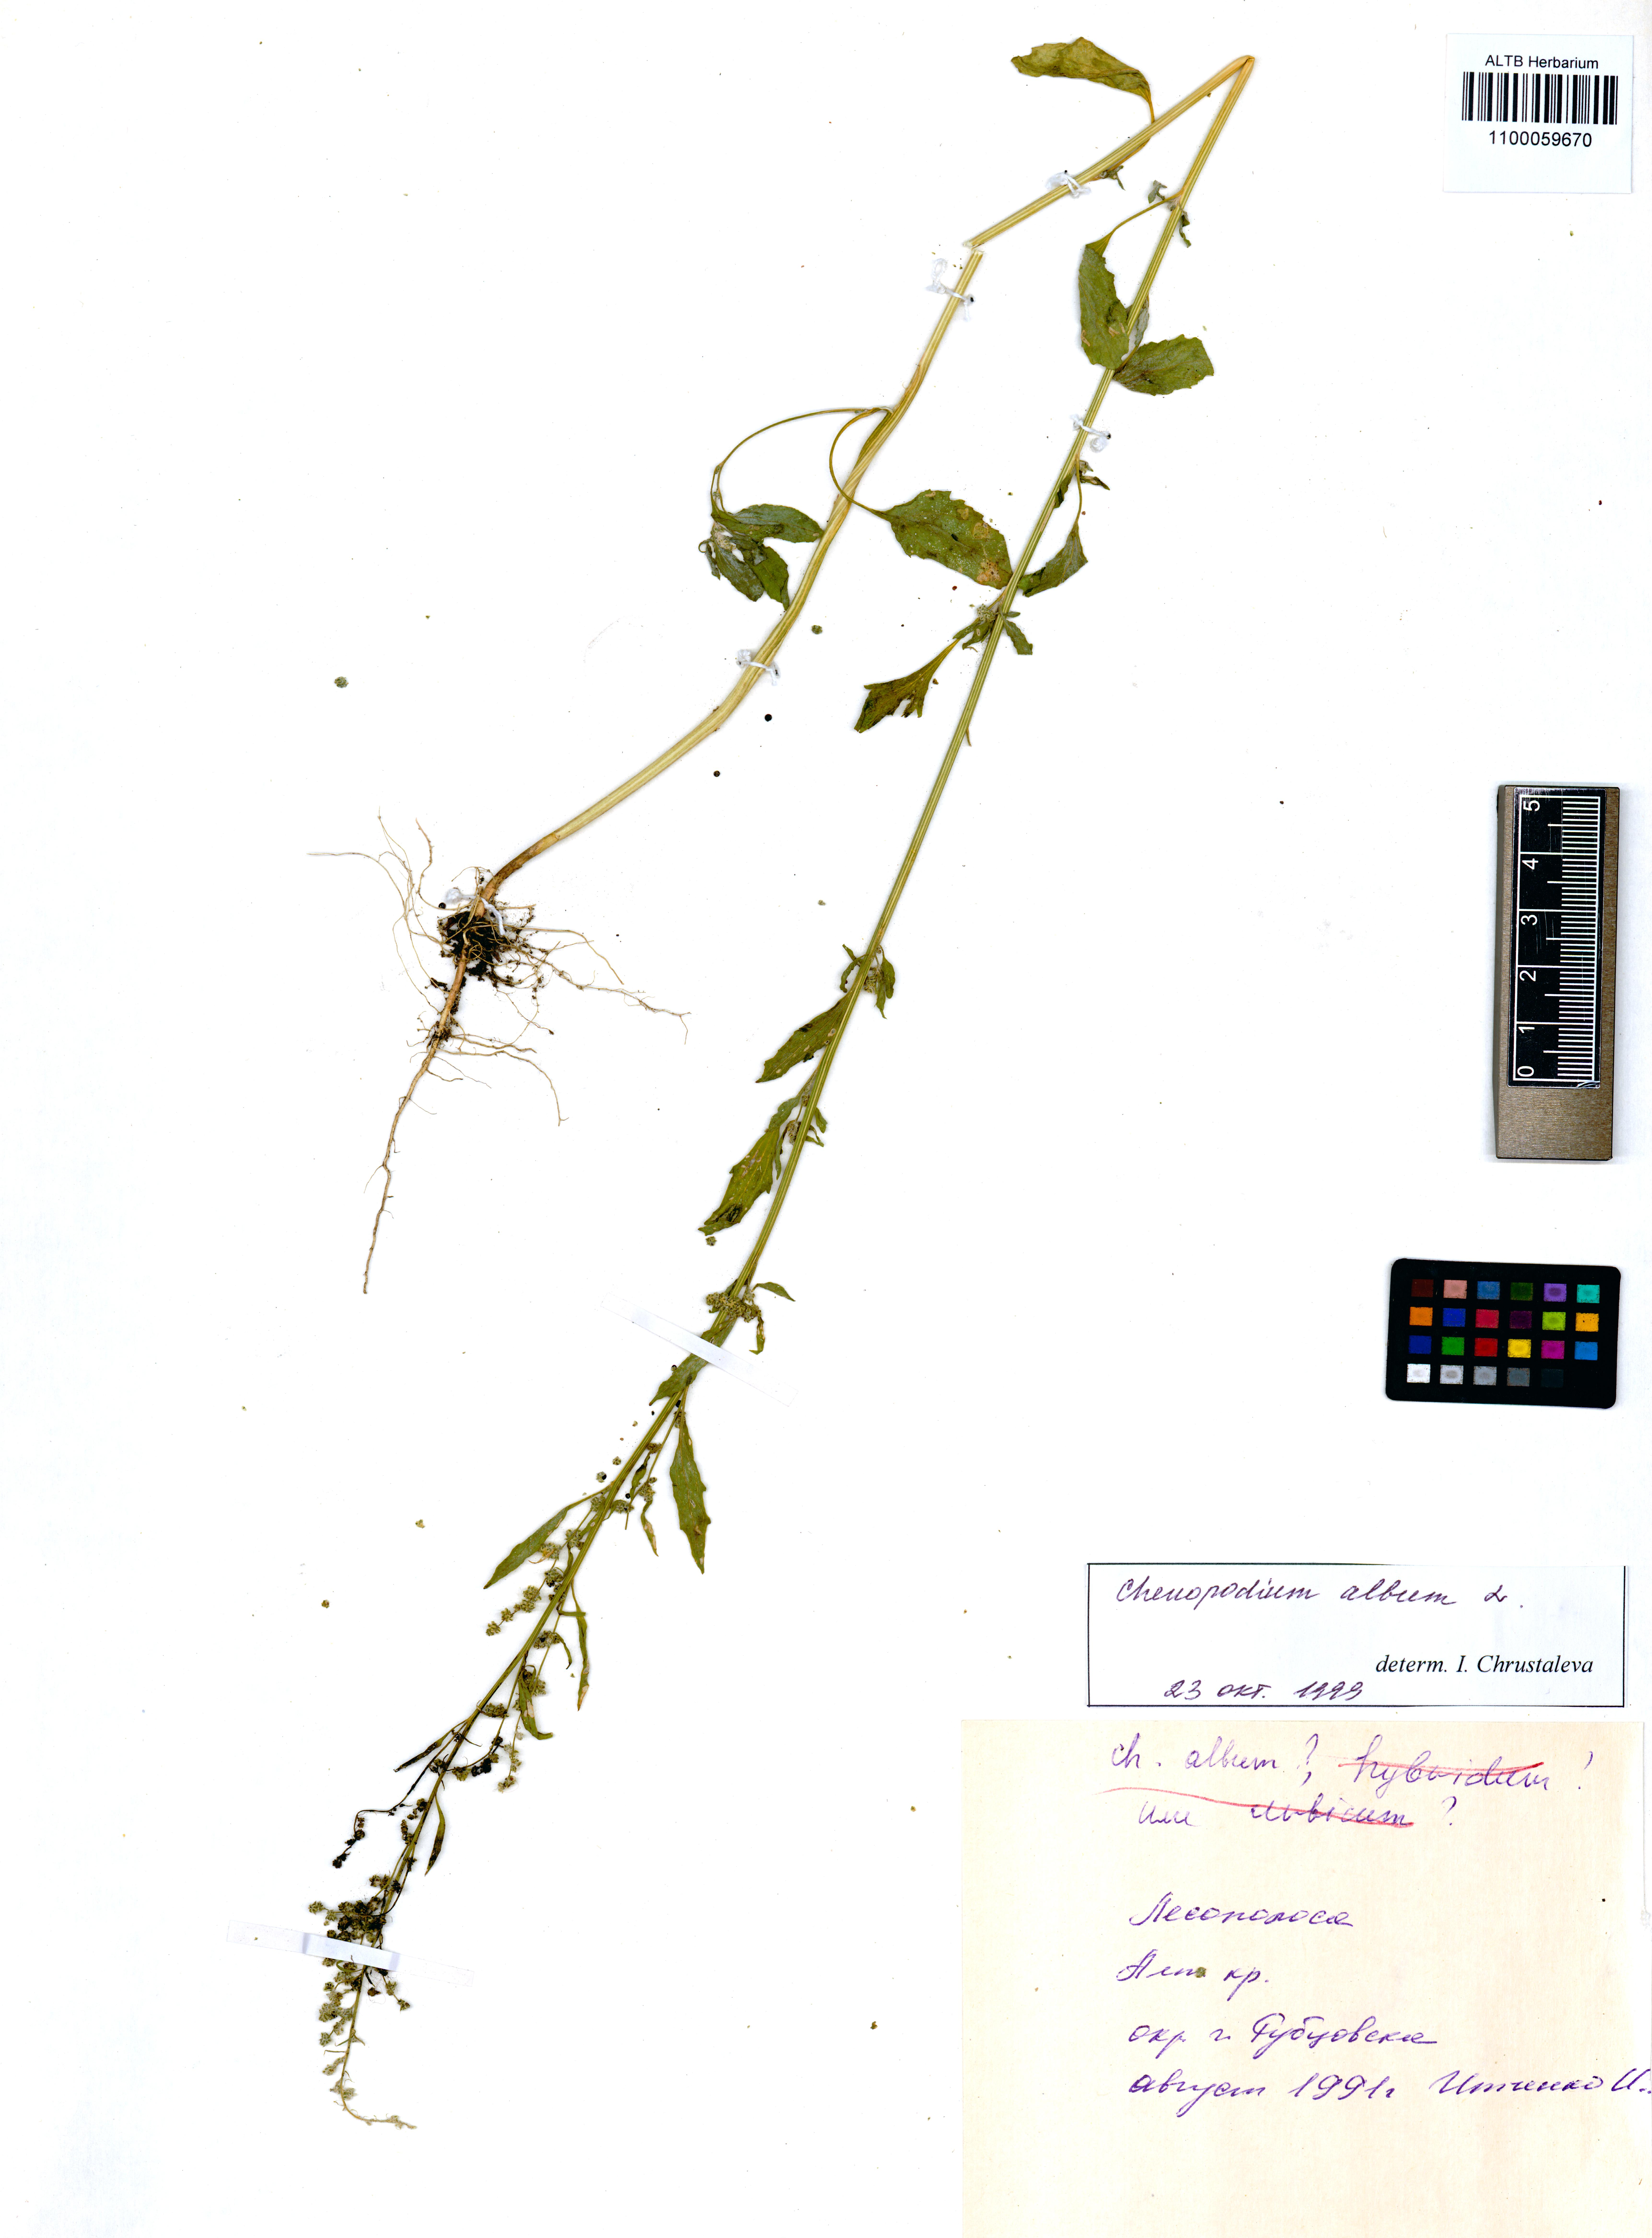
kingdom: Plantae
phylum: Tracheophyta
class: Magnoliopsida
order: Caryophyllales
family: Amaranthaceae
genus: Chenopodium
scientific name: Chenopodium album
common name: Fat-hen
